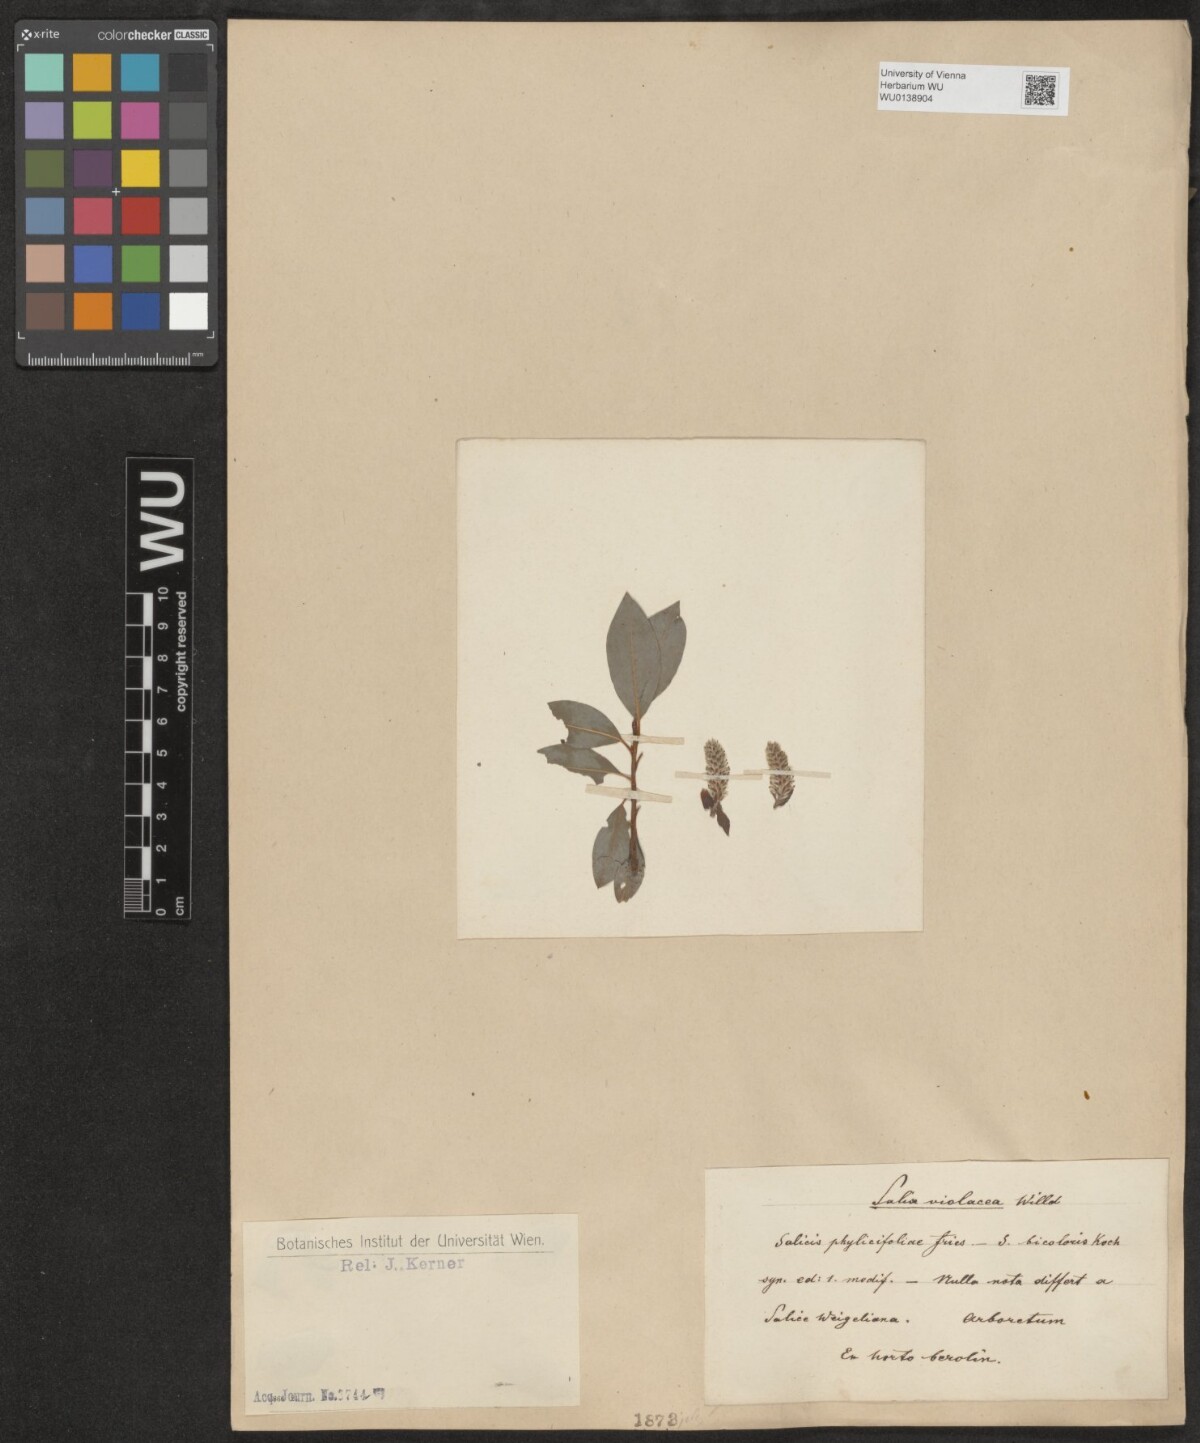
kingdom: Plantae
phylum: Tracheophyta
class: Magnoliopsida
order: Malpighiales
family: Salicaceae
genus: Salix
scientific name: Salix phylicifolia
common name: Tea-leaved willow
